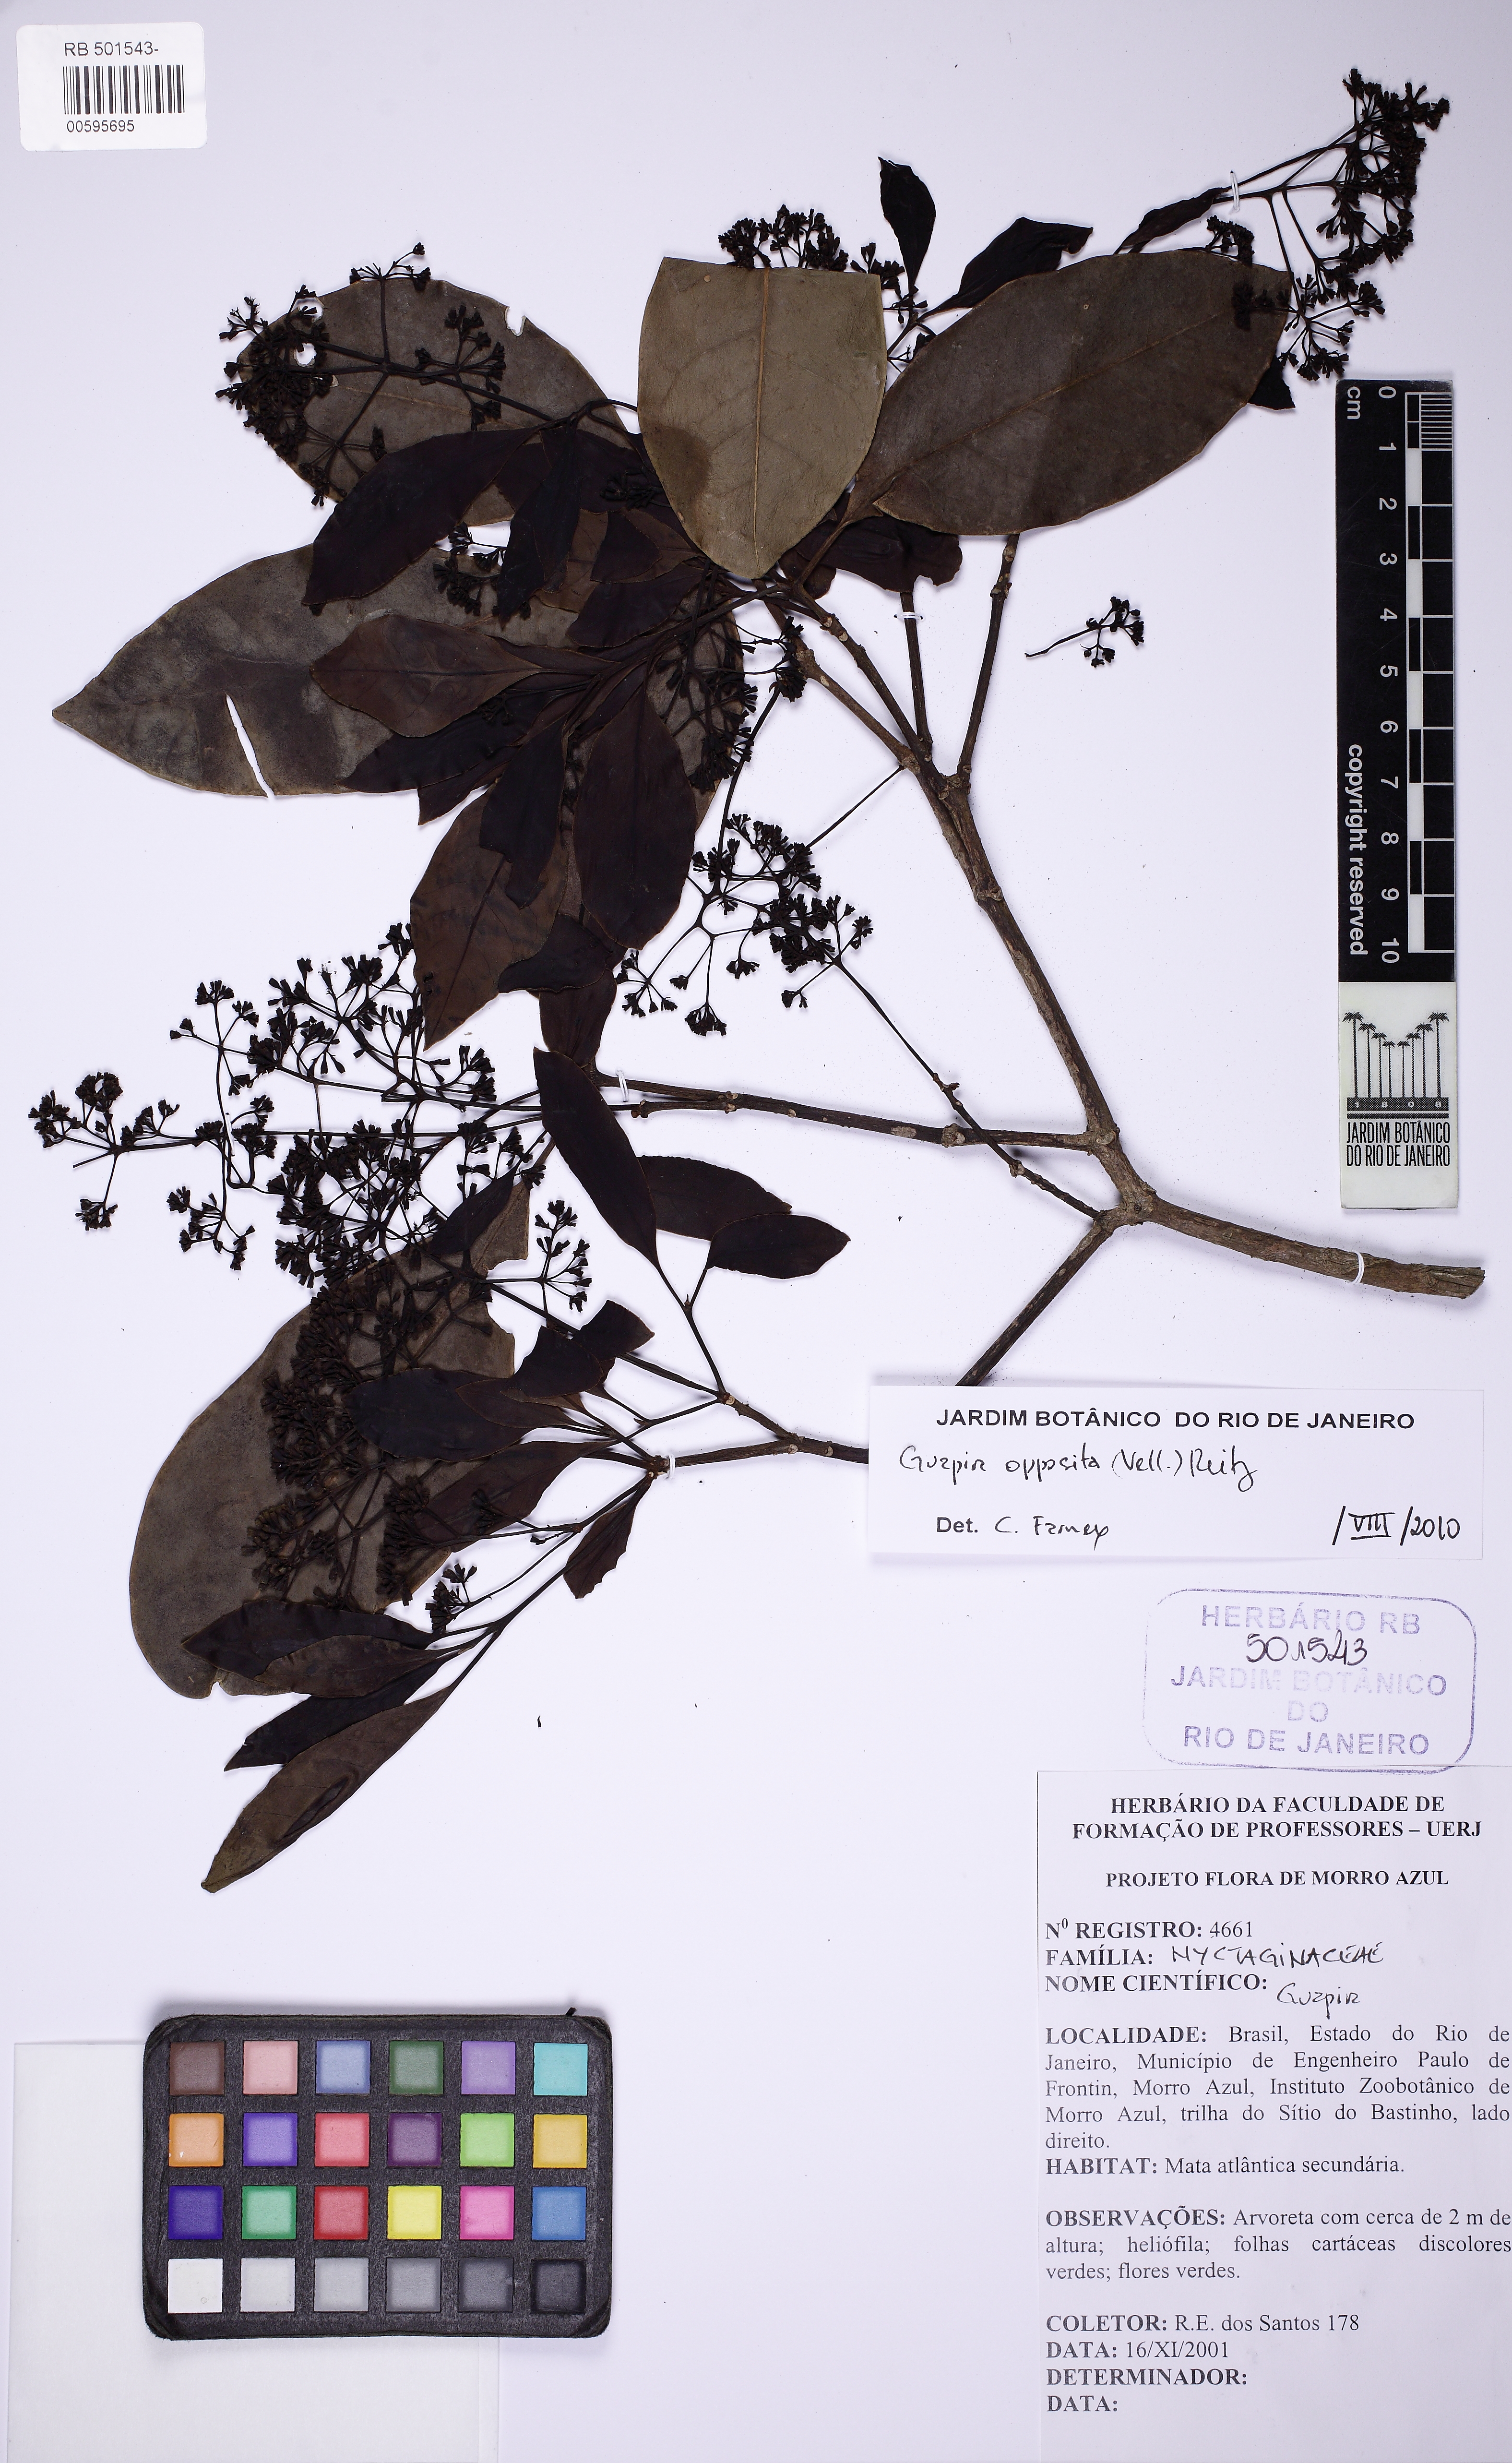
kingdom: Plantae
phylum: Tracheophyta
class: Magnoliopsida
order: Caryophyllales
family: Nyctaginaceae
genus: Guapira
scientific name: Guapira opposita
